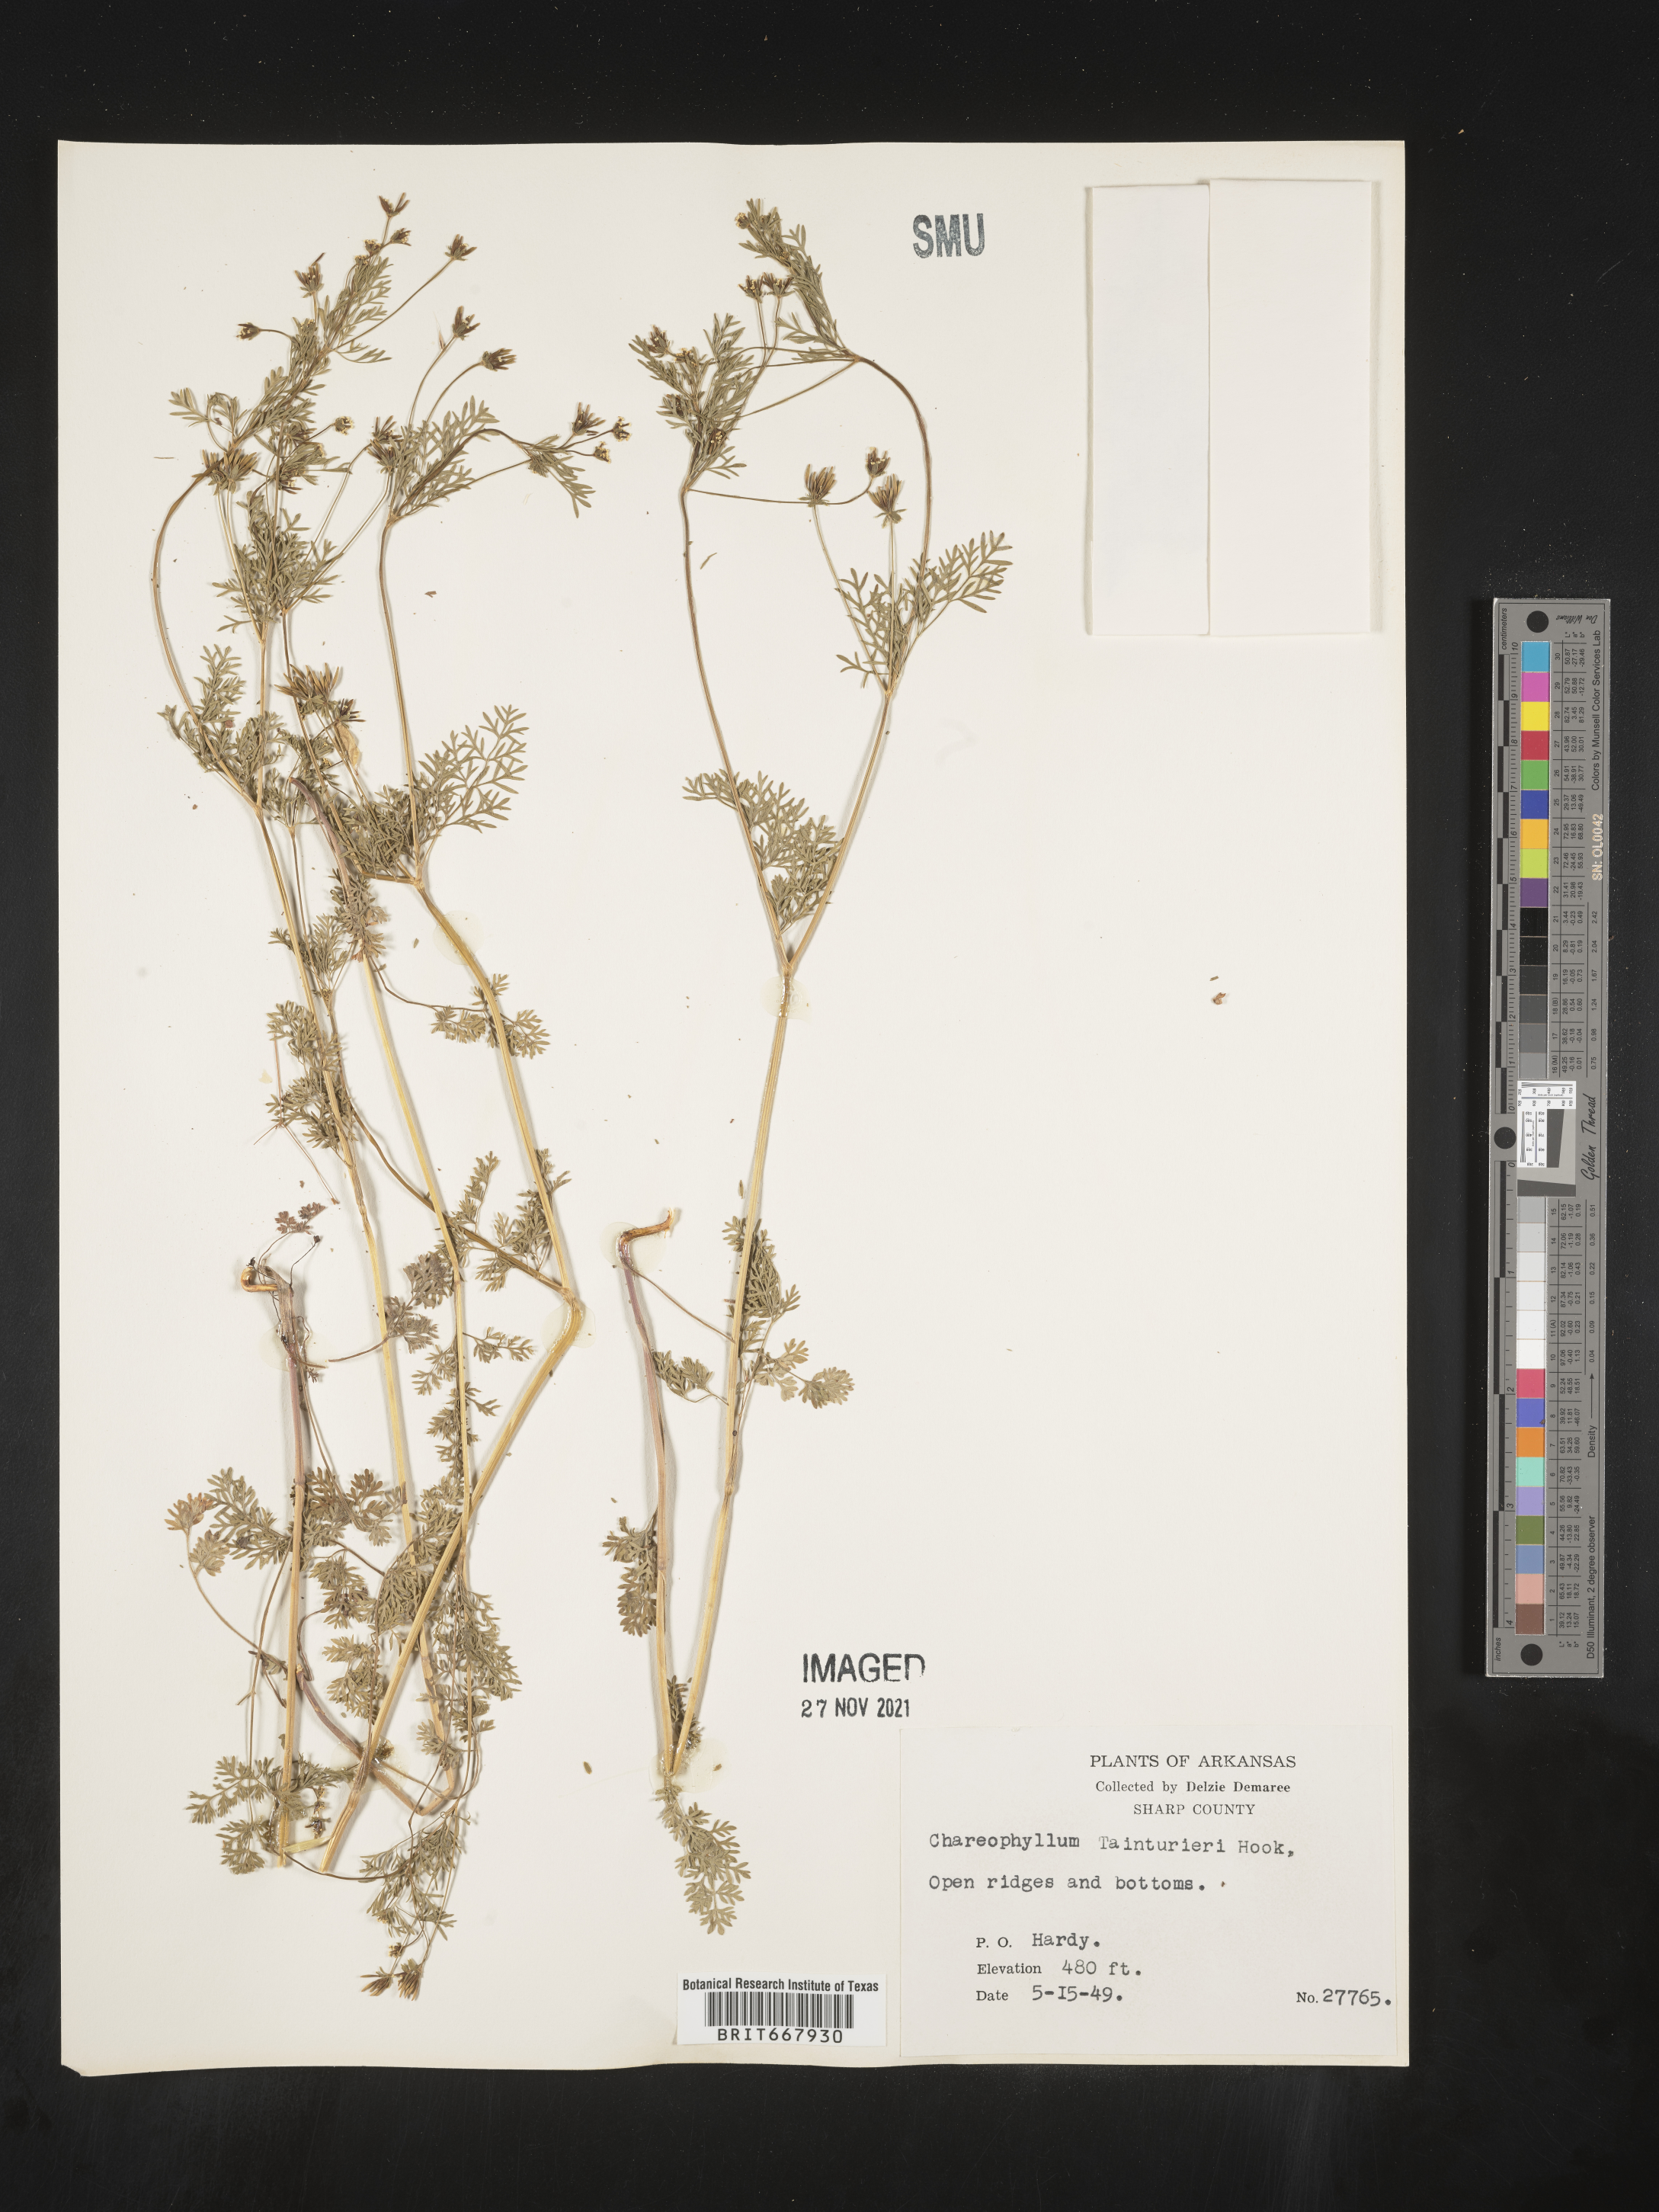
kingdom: Plantae
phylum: Tracheophyta
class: Magnoliopsida
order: Apiales
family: Apiaceae
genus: Chaerophyllum
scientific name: Chaerophyllum tainturieri
